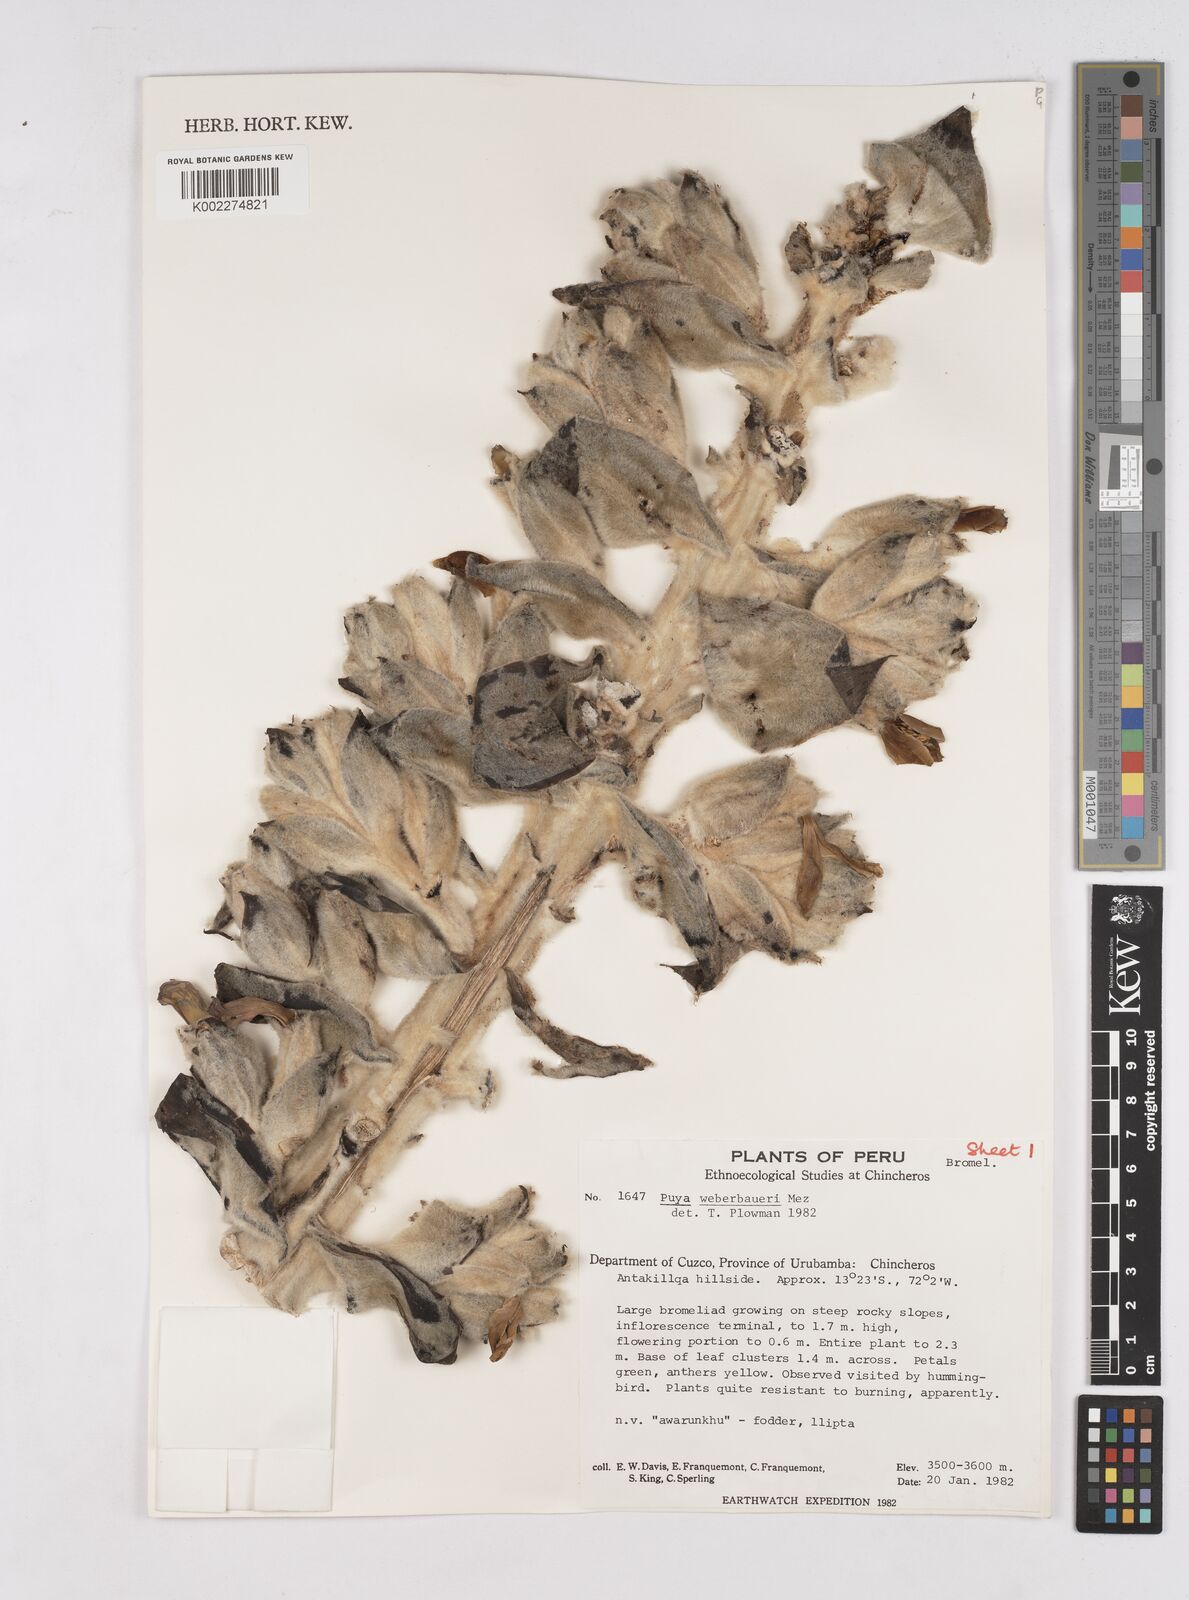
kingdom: Plantae
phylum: Tracheophyta
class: Liliopsida
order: Poales
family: Bromeliaceae
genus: Puya
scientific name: Puya weberbaueri
